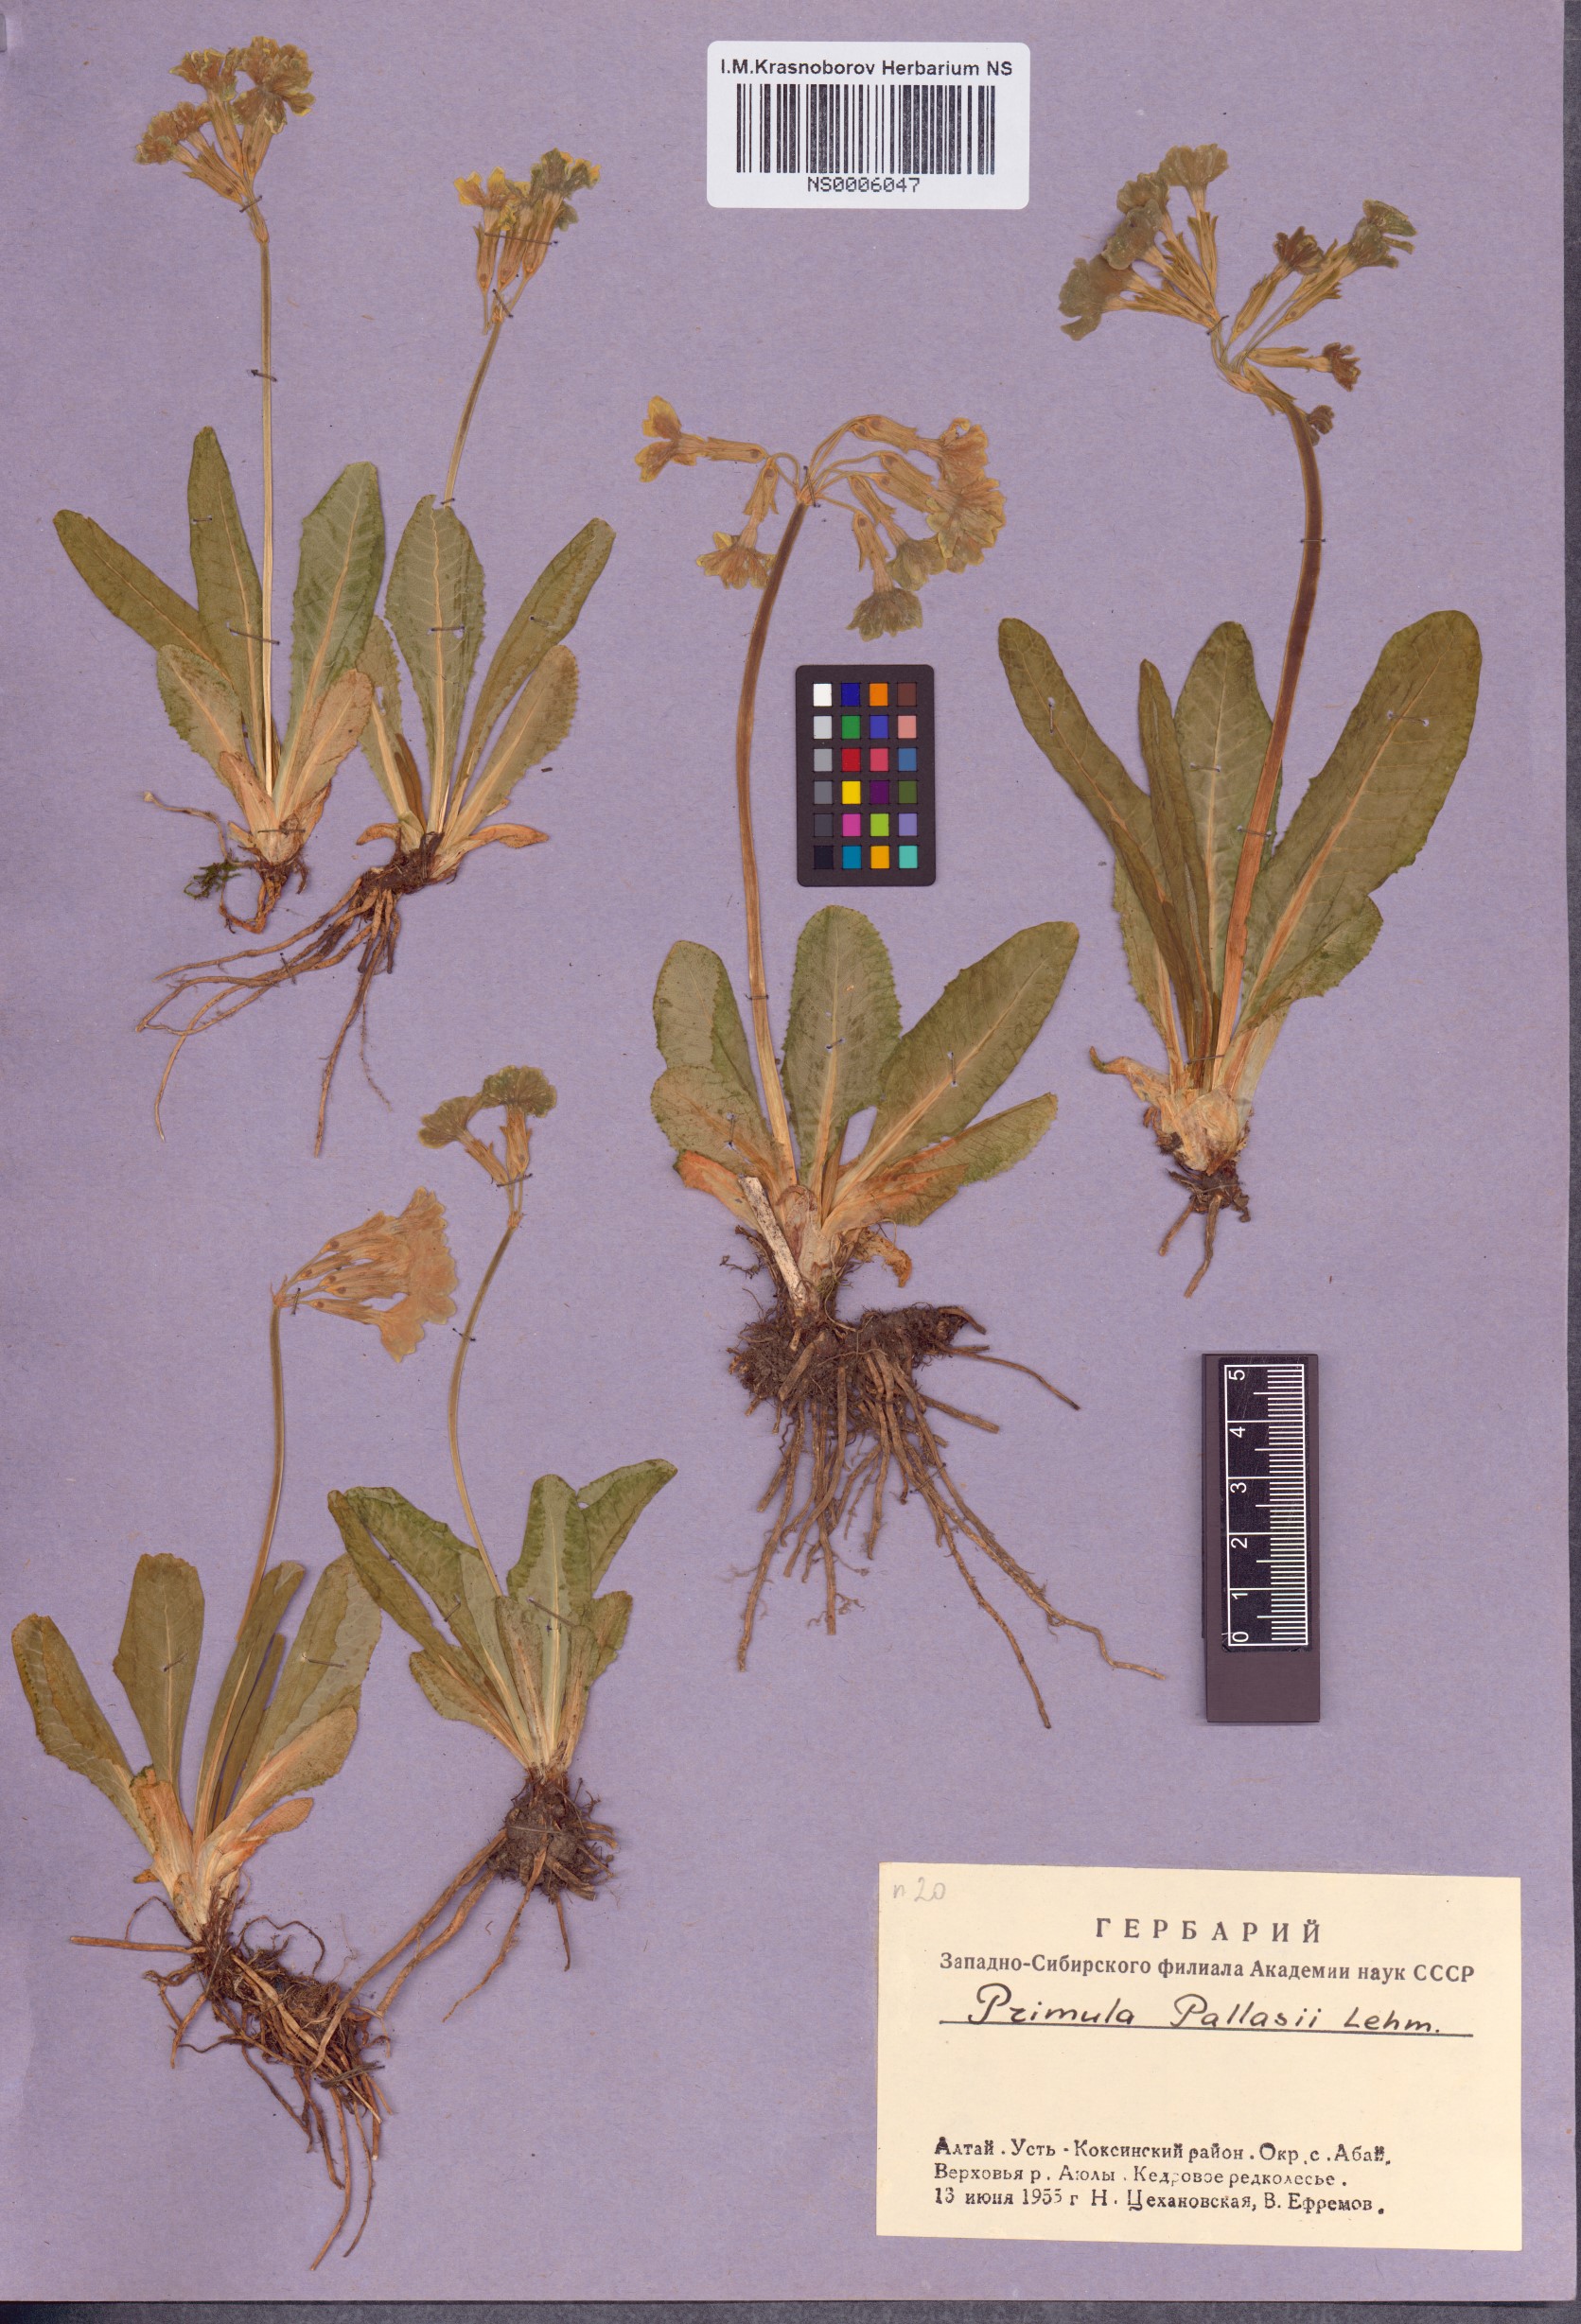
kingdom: Plantae
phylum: Tracheophyta
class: Magnoliopsida
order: Ericales
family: Primulaceae
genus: Primula
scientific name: Primula elatior
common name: Oxlip
